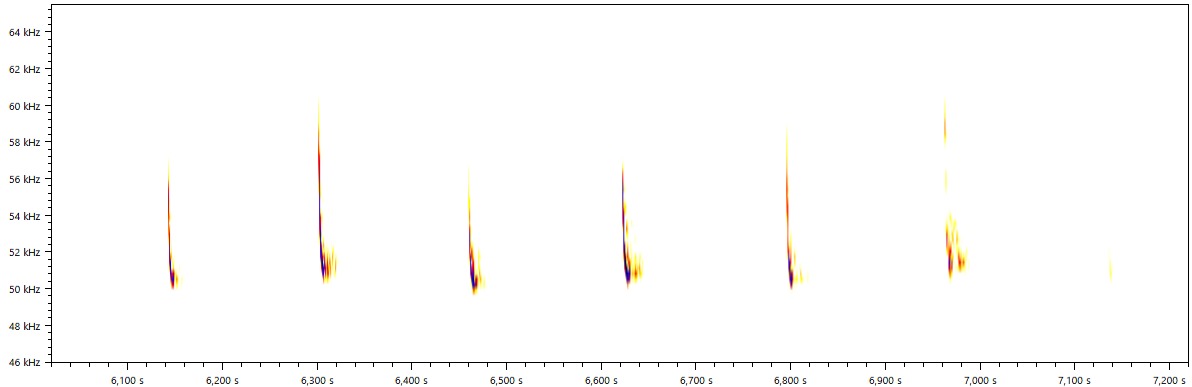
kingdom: Animalia
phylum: Chordata
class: Mammalia
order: Chiroptera
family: Vespertilionidae
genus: Pipistrellus
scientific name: Pipistrellus pygmaeus
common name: Dværgflagermus
